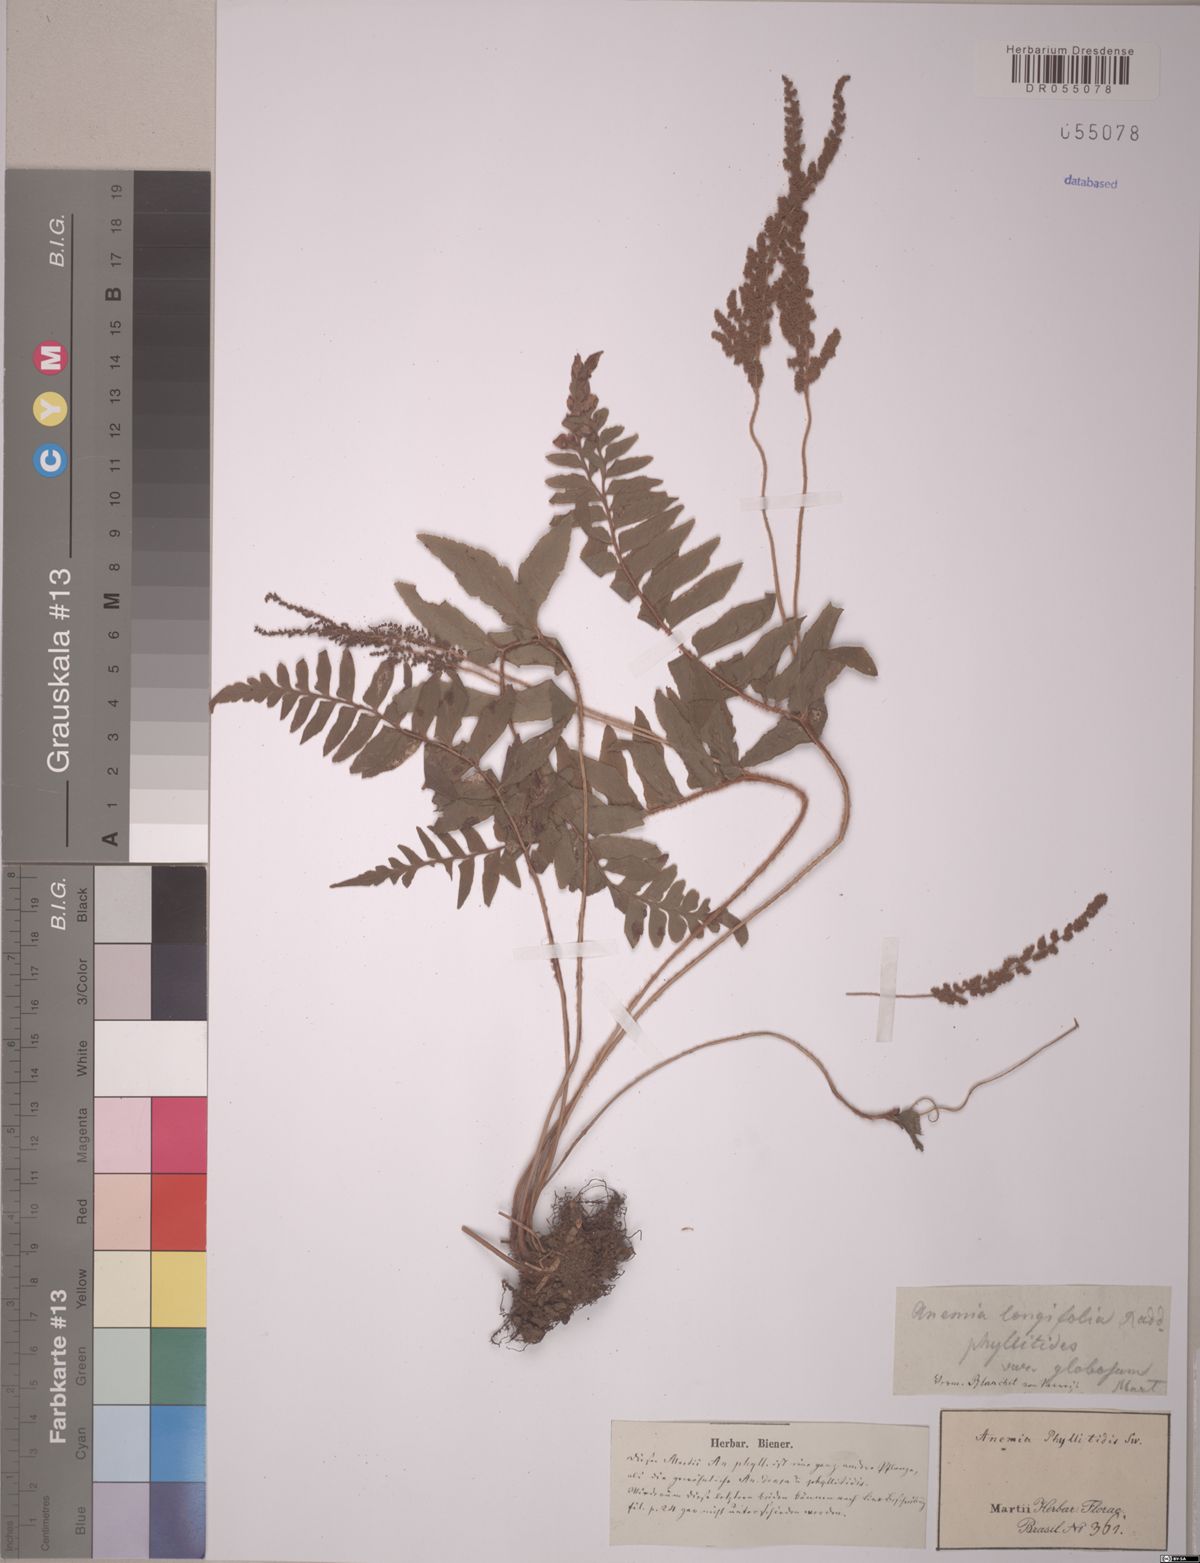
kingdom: Plantae
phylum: Tracheophyta
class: Polypodiopsida
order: Schizaeales
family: Anemiaceae
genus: Anemia
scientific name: Anemia phyllitidis
